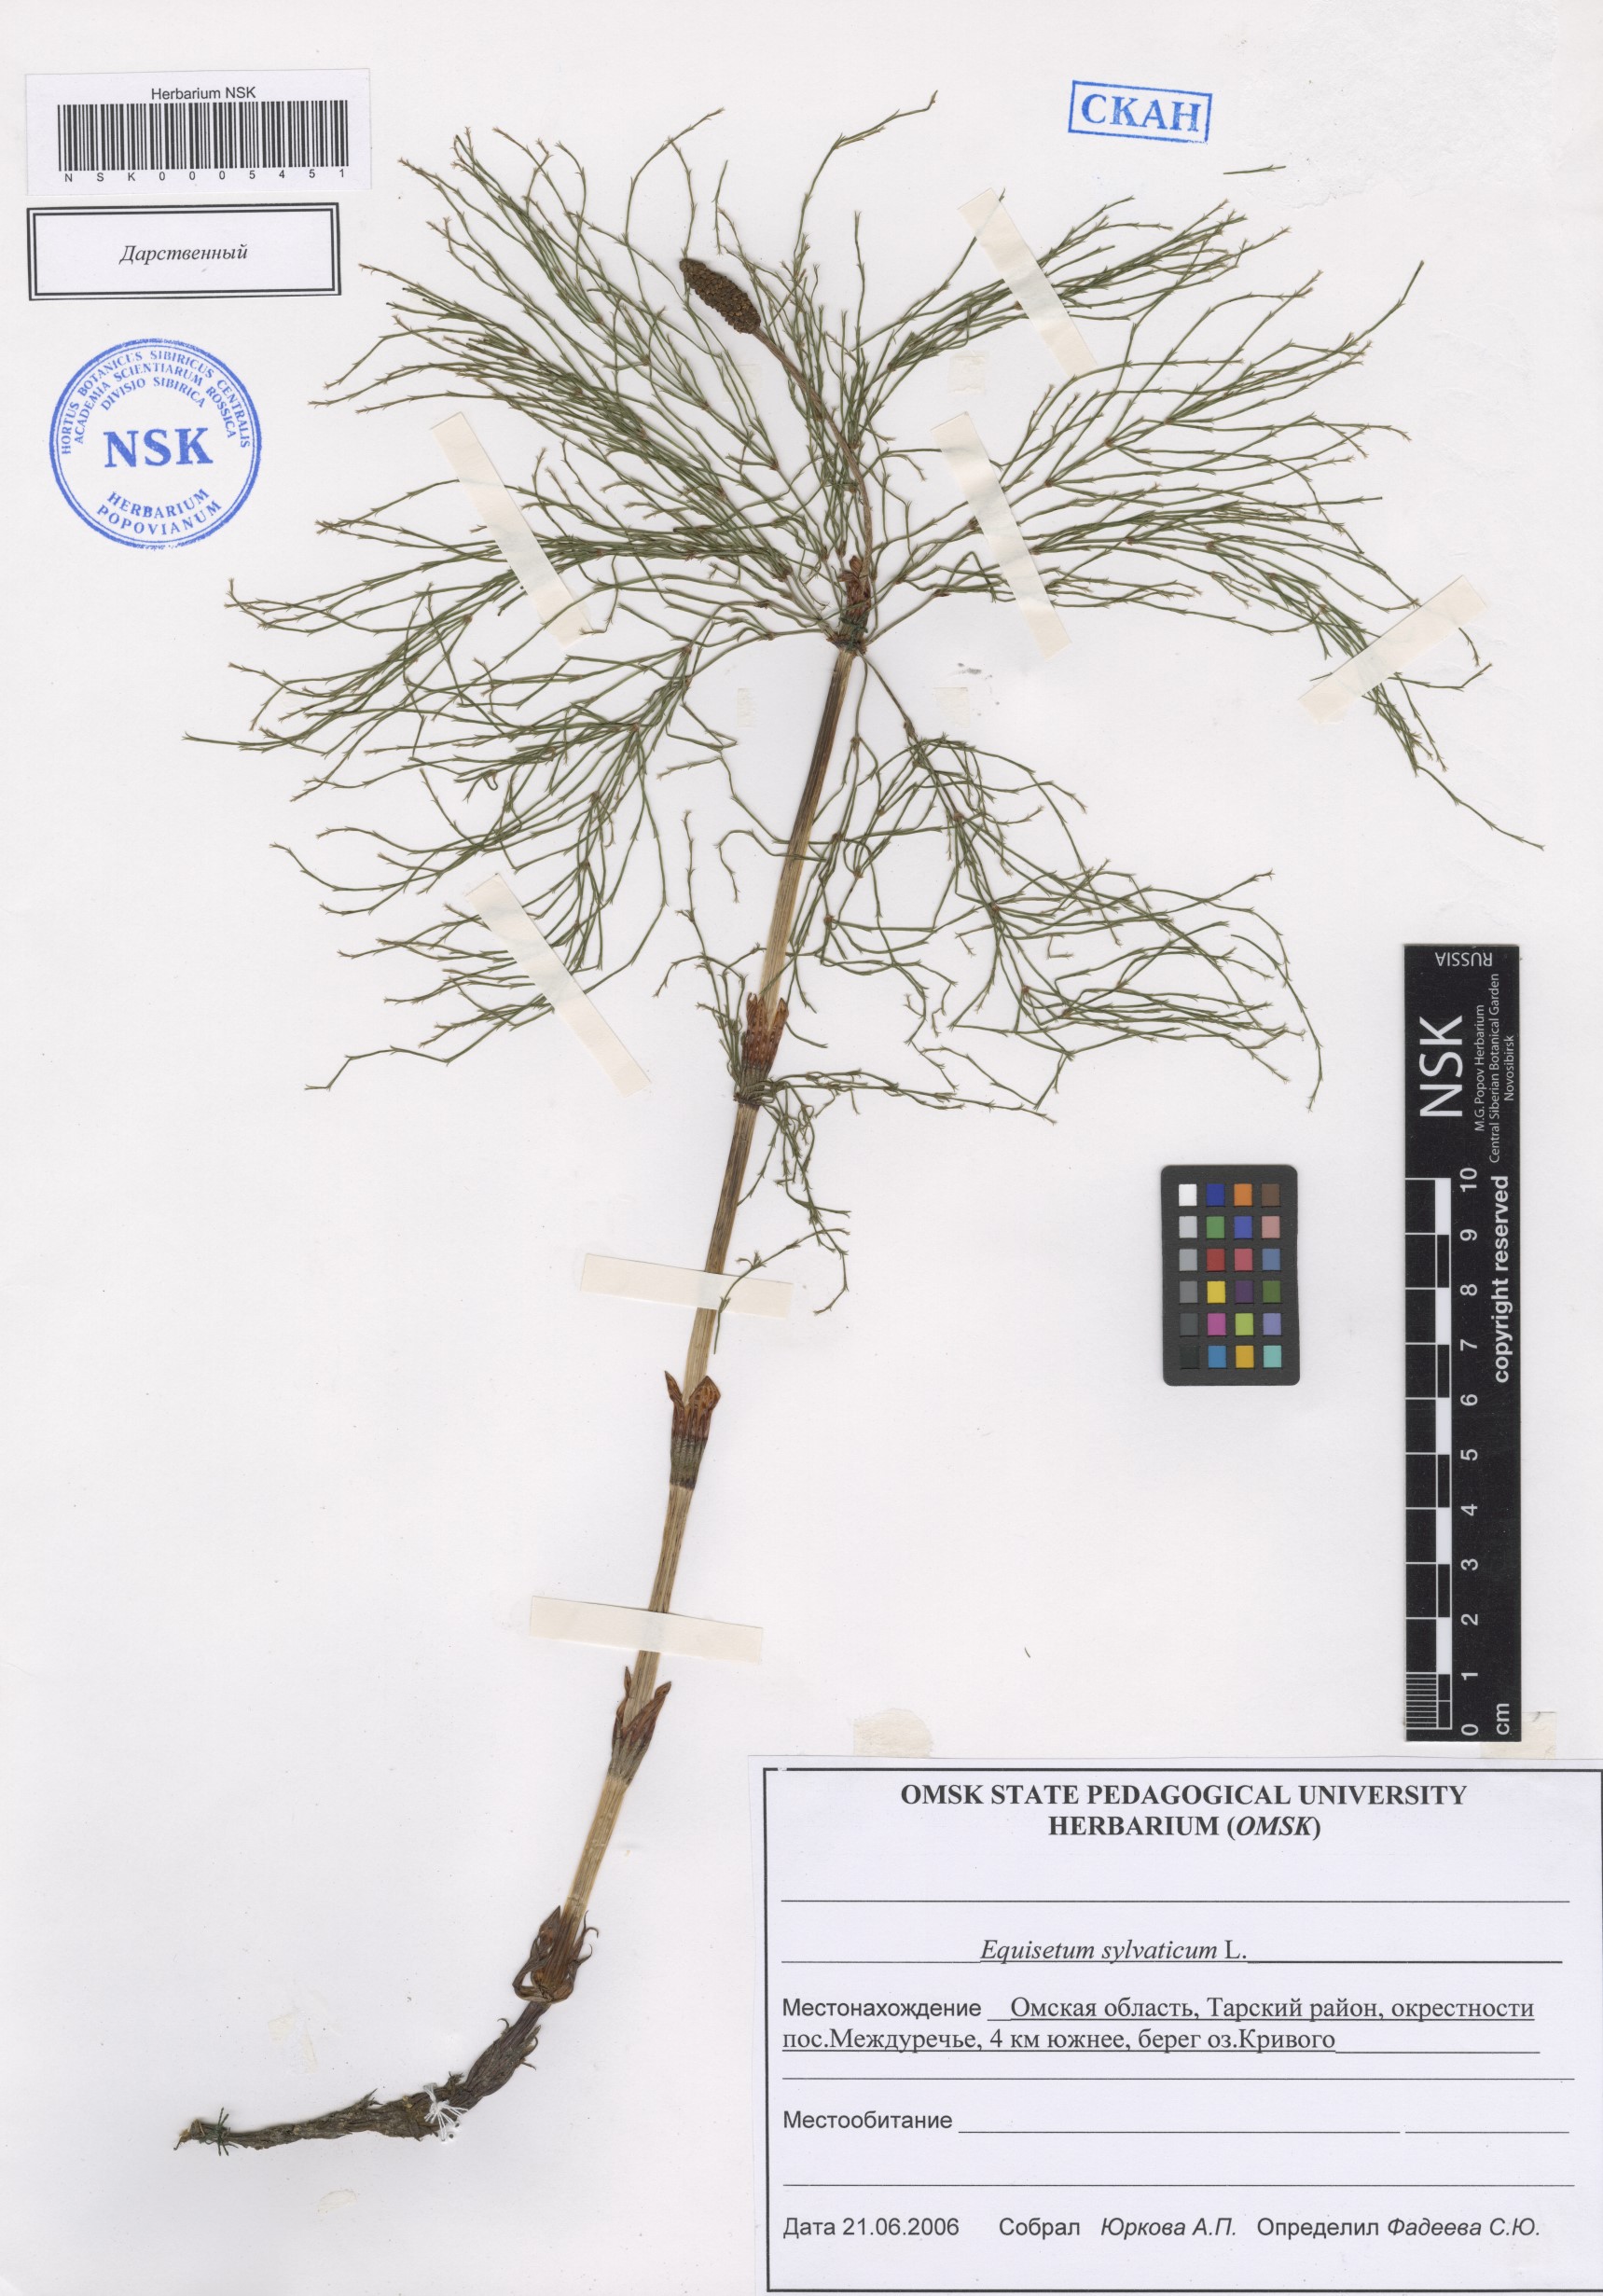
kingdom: Plantae
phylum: Tracheophyta
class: Polypodiopsida
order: Equisetales
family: Equisetaceae
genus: Equisetum
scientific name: Equisetum sylvaticum
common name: Wood horsetail
